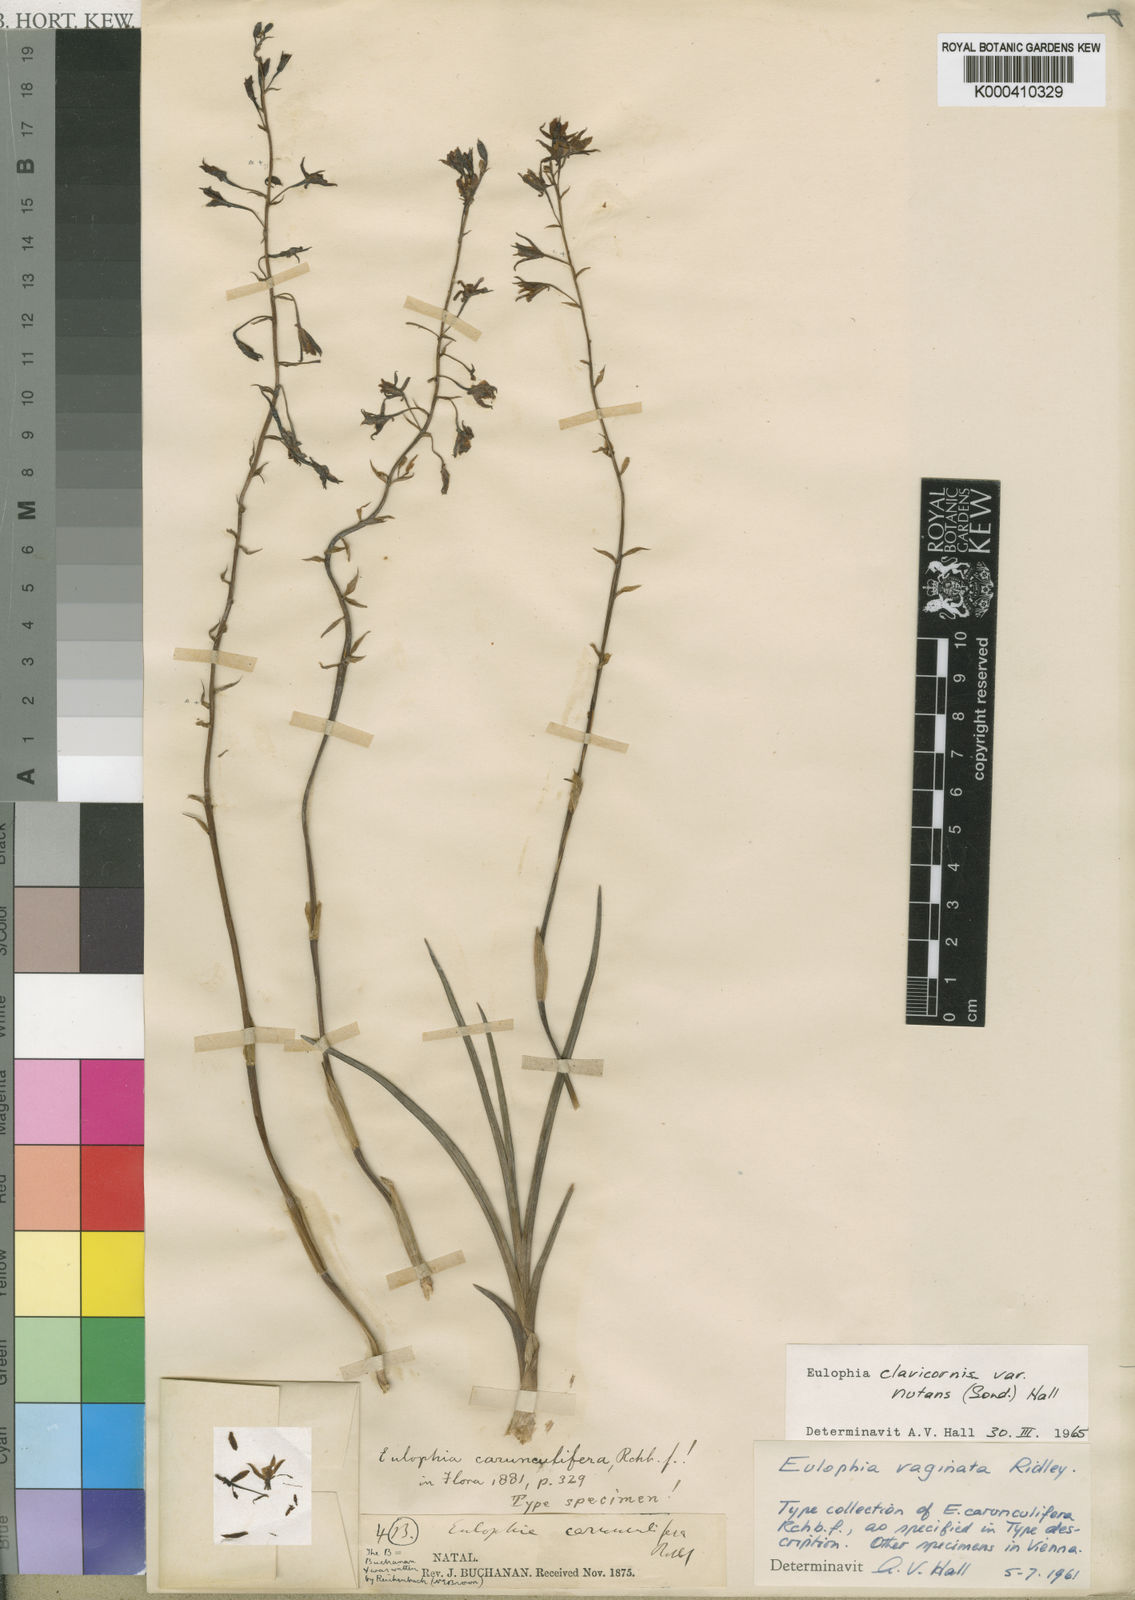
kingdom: Plantae
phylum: Tracheophyta
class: Liliopsida
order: Asparagales
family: Orchidaceae
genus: Eulophia
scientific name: Eulophia hians
